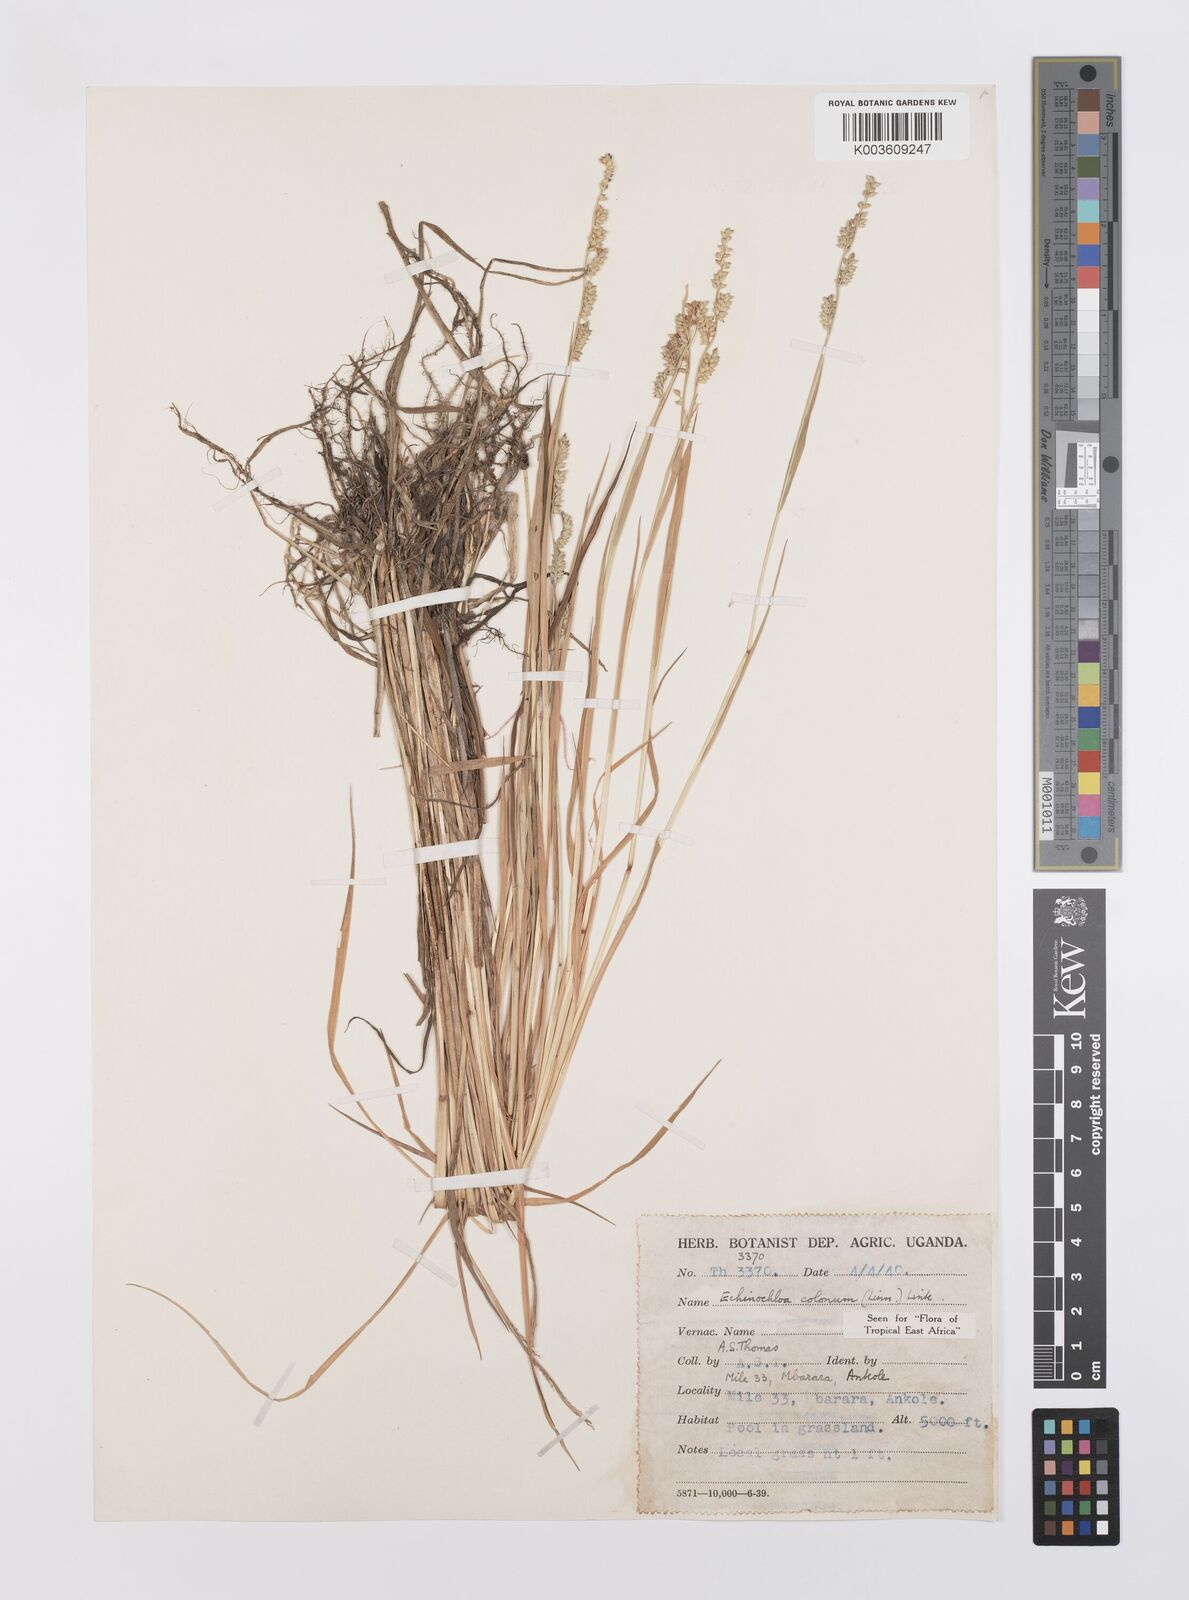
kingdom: Plantae
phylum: Tracheophyta
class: Liliopsida
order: Poales
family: Poaceae
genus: Echinochloa
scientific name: Echinochloa colonum
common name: Jungle rice
